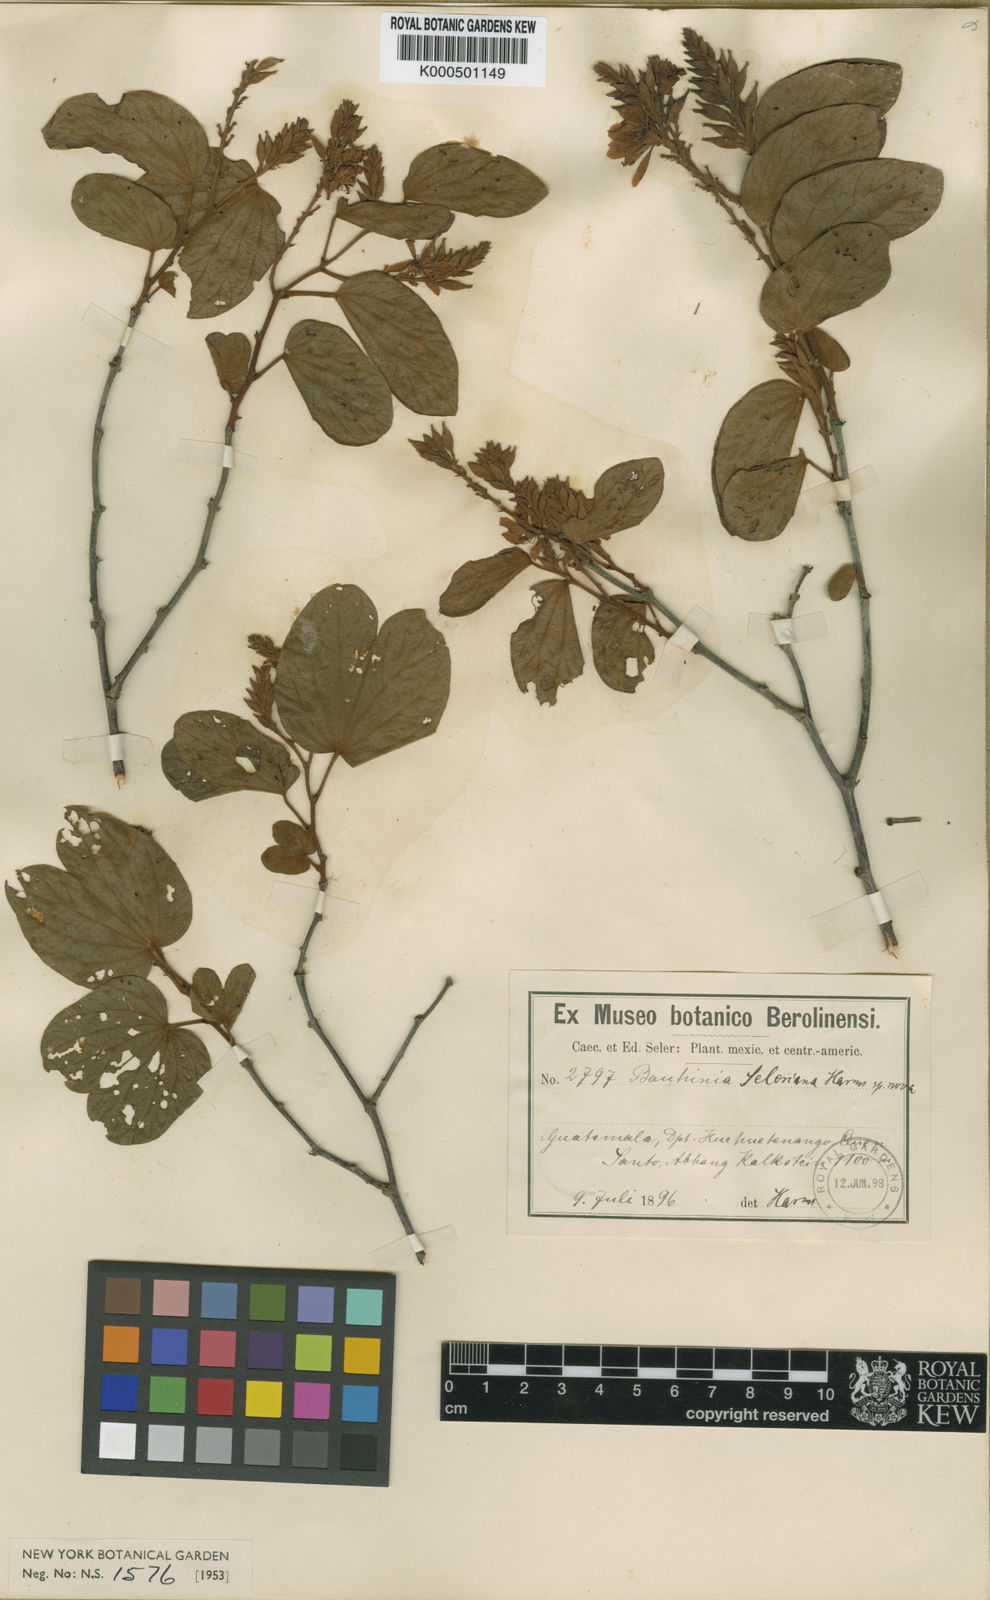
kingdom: Plantae
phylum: Tracheophyta
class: Magnoliopsida
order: Fabales
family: Fabaceae
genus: Bauhinia
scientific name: Bauhinia seleriana
